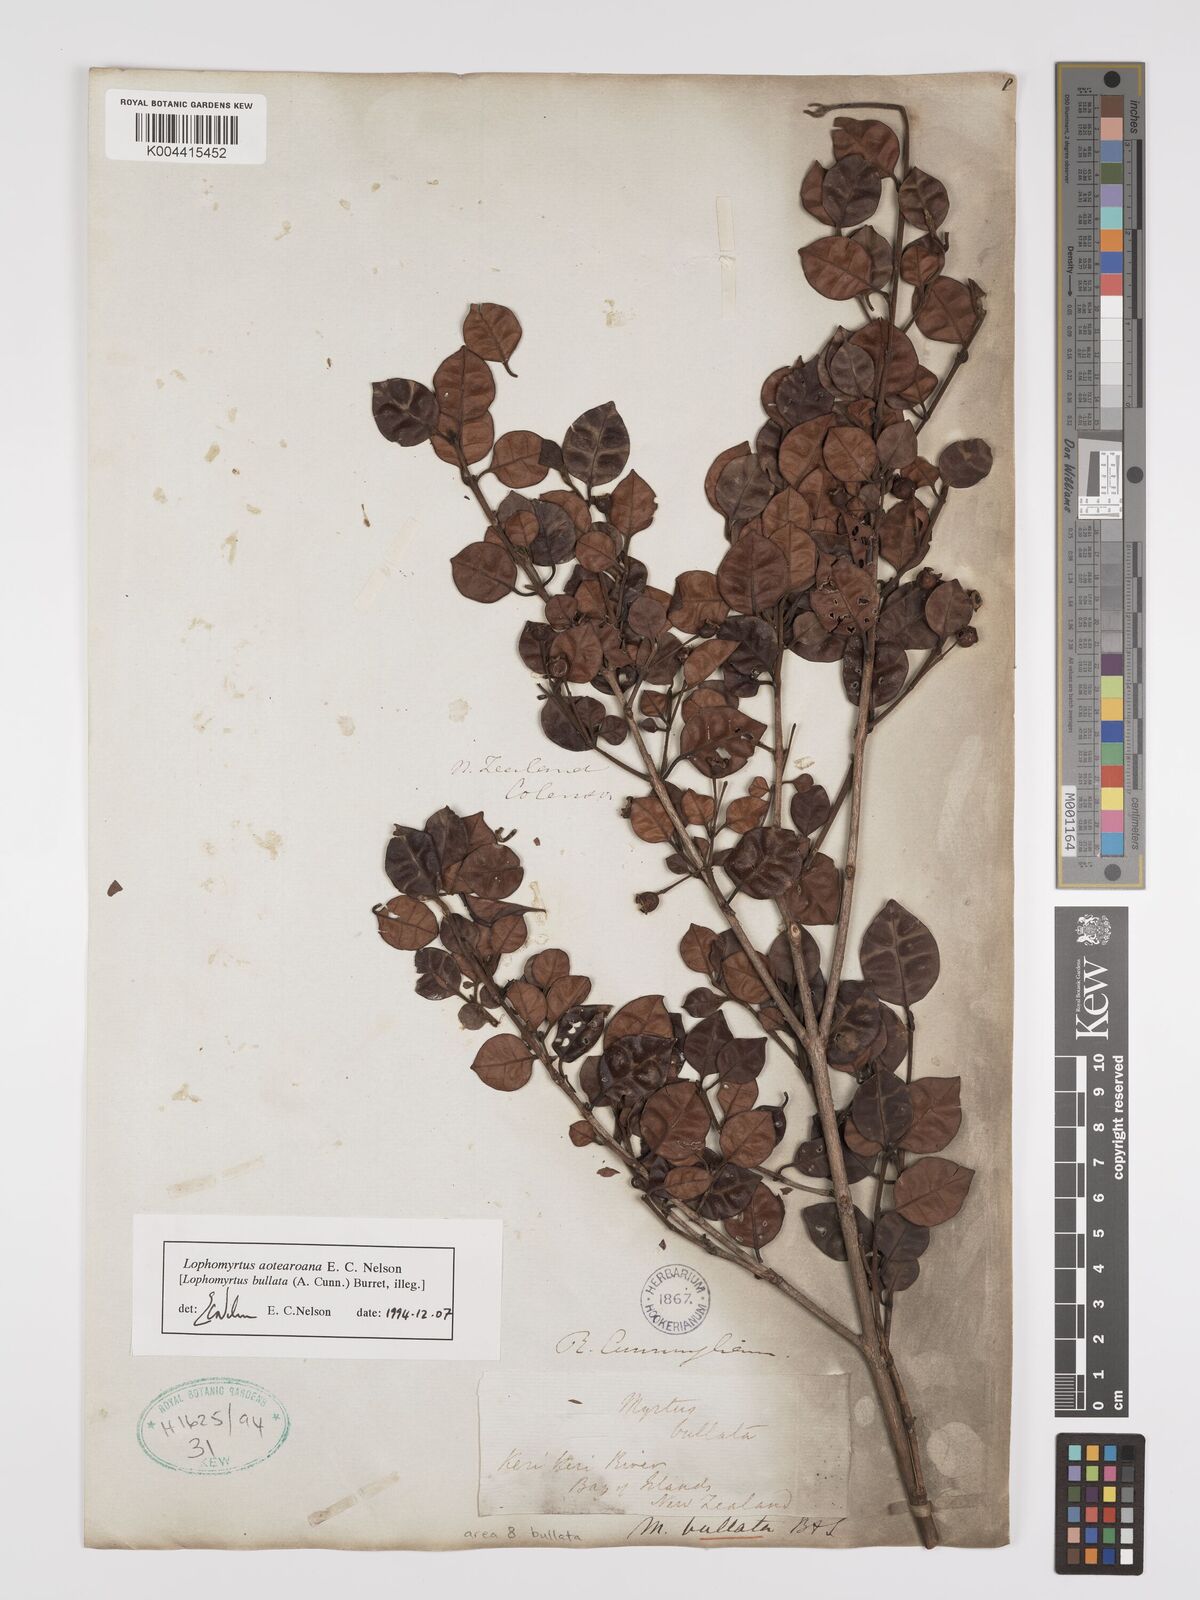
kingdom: Plantae
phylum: Tracheophyta
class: Magnoliopsida
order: Myrtales
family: Myrtaceae
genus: Lophomyrtus
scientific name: Lophomyrtus bullata
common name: Rama rama
